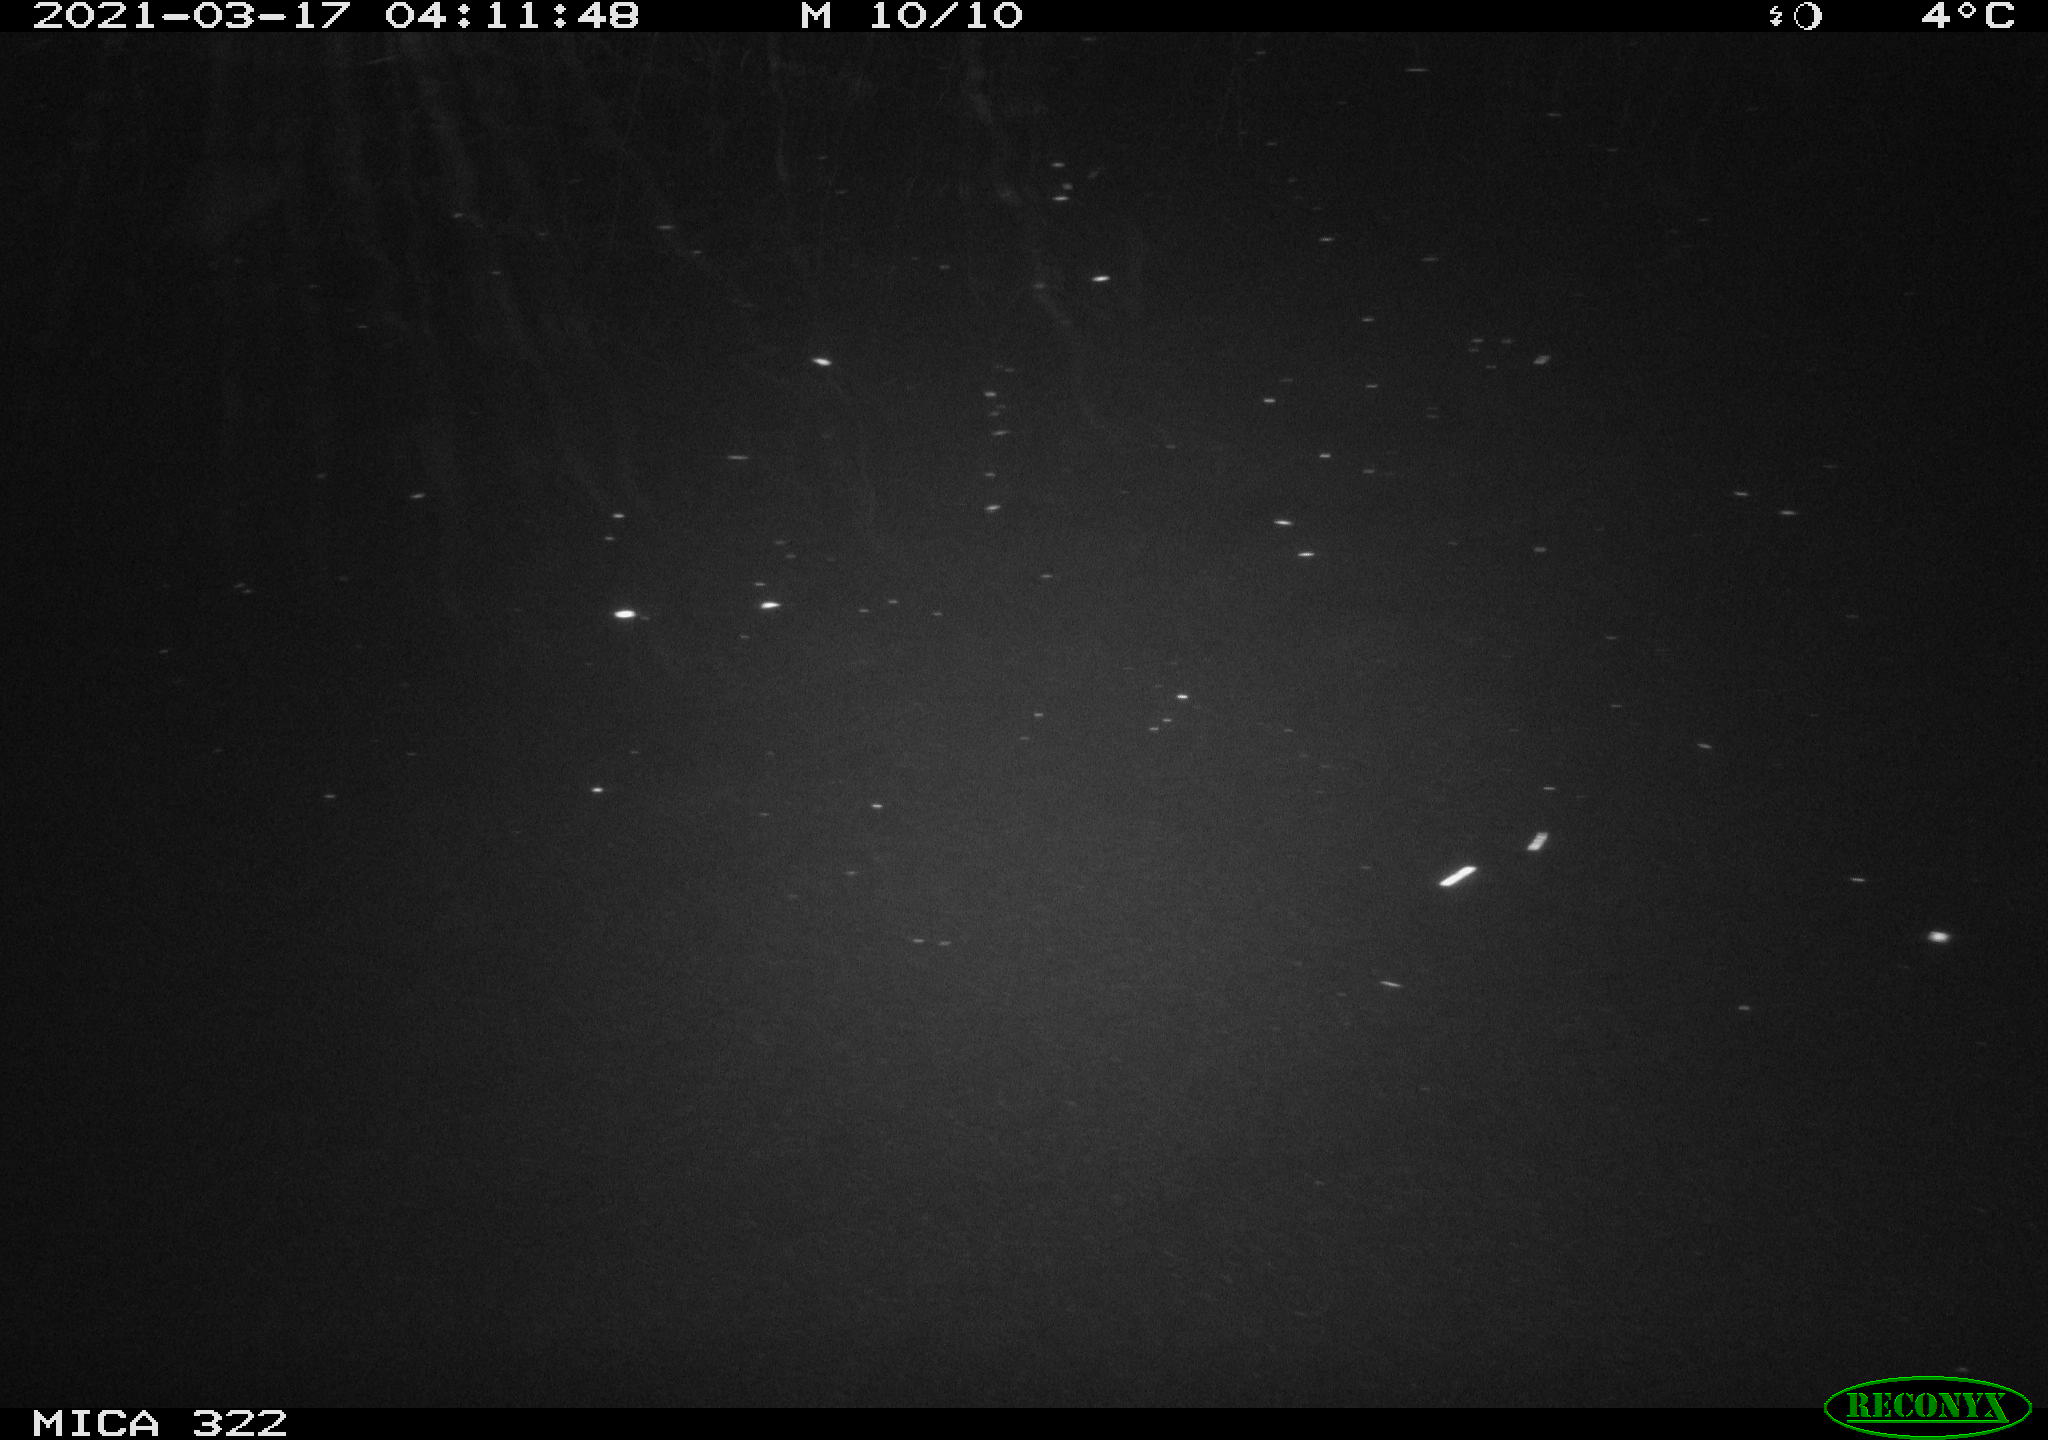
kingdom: Animalia
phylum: Chordata
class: Mammalia
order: Rodentia
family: Cricetidae
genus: Ondatra
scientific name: Ondatra zibethicus
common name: Muskrat
